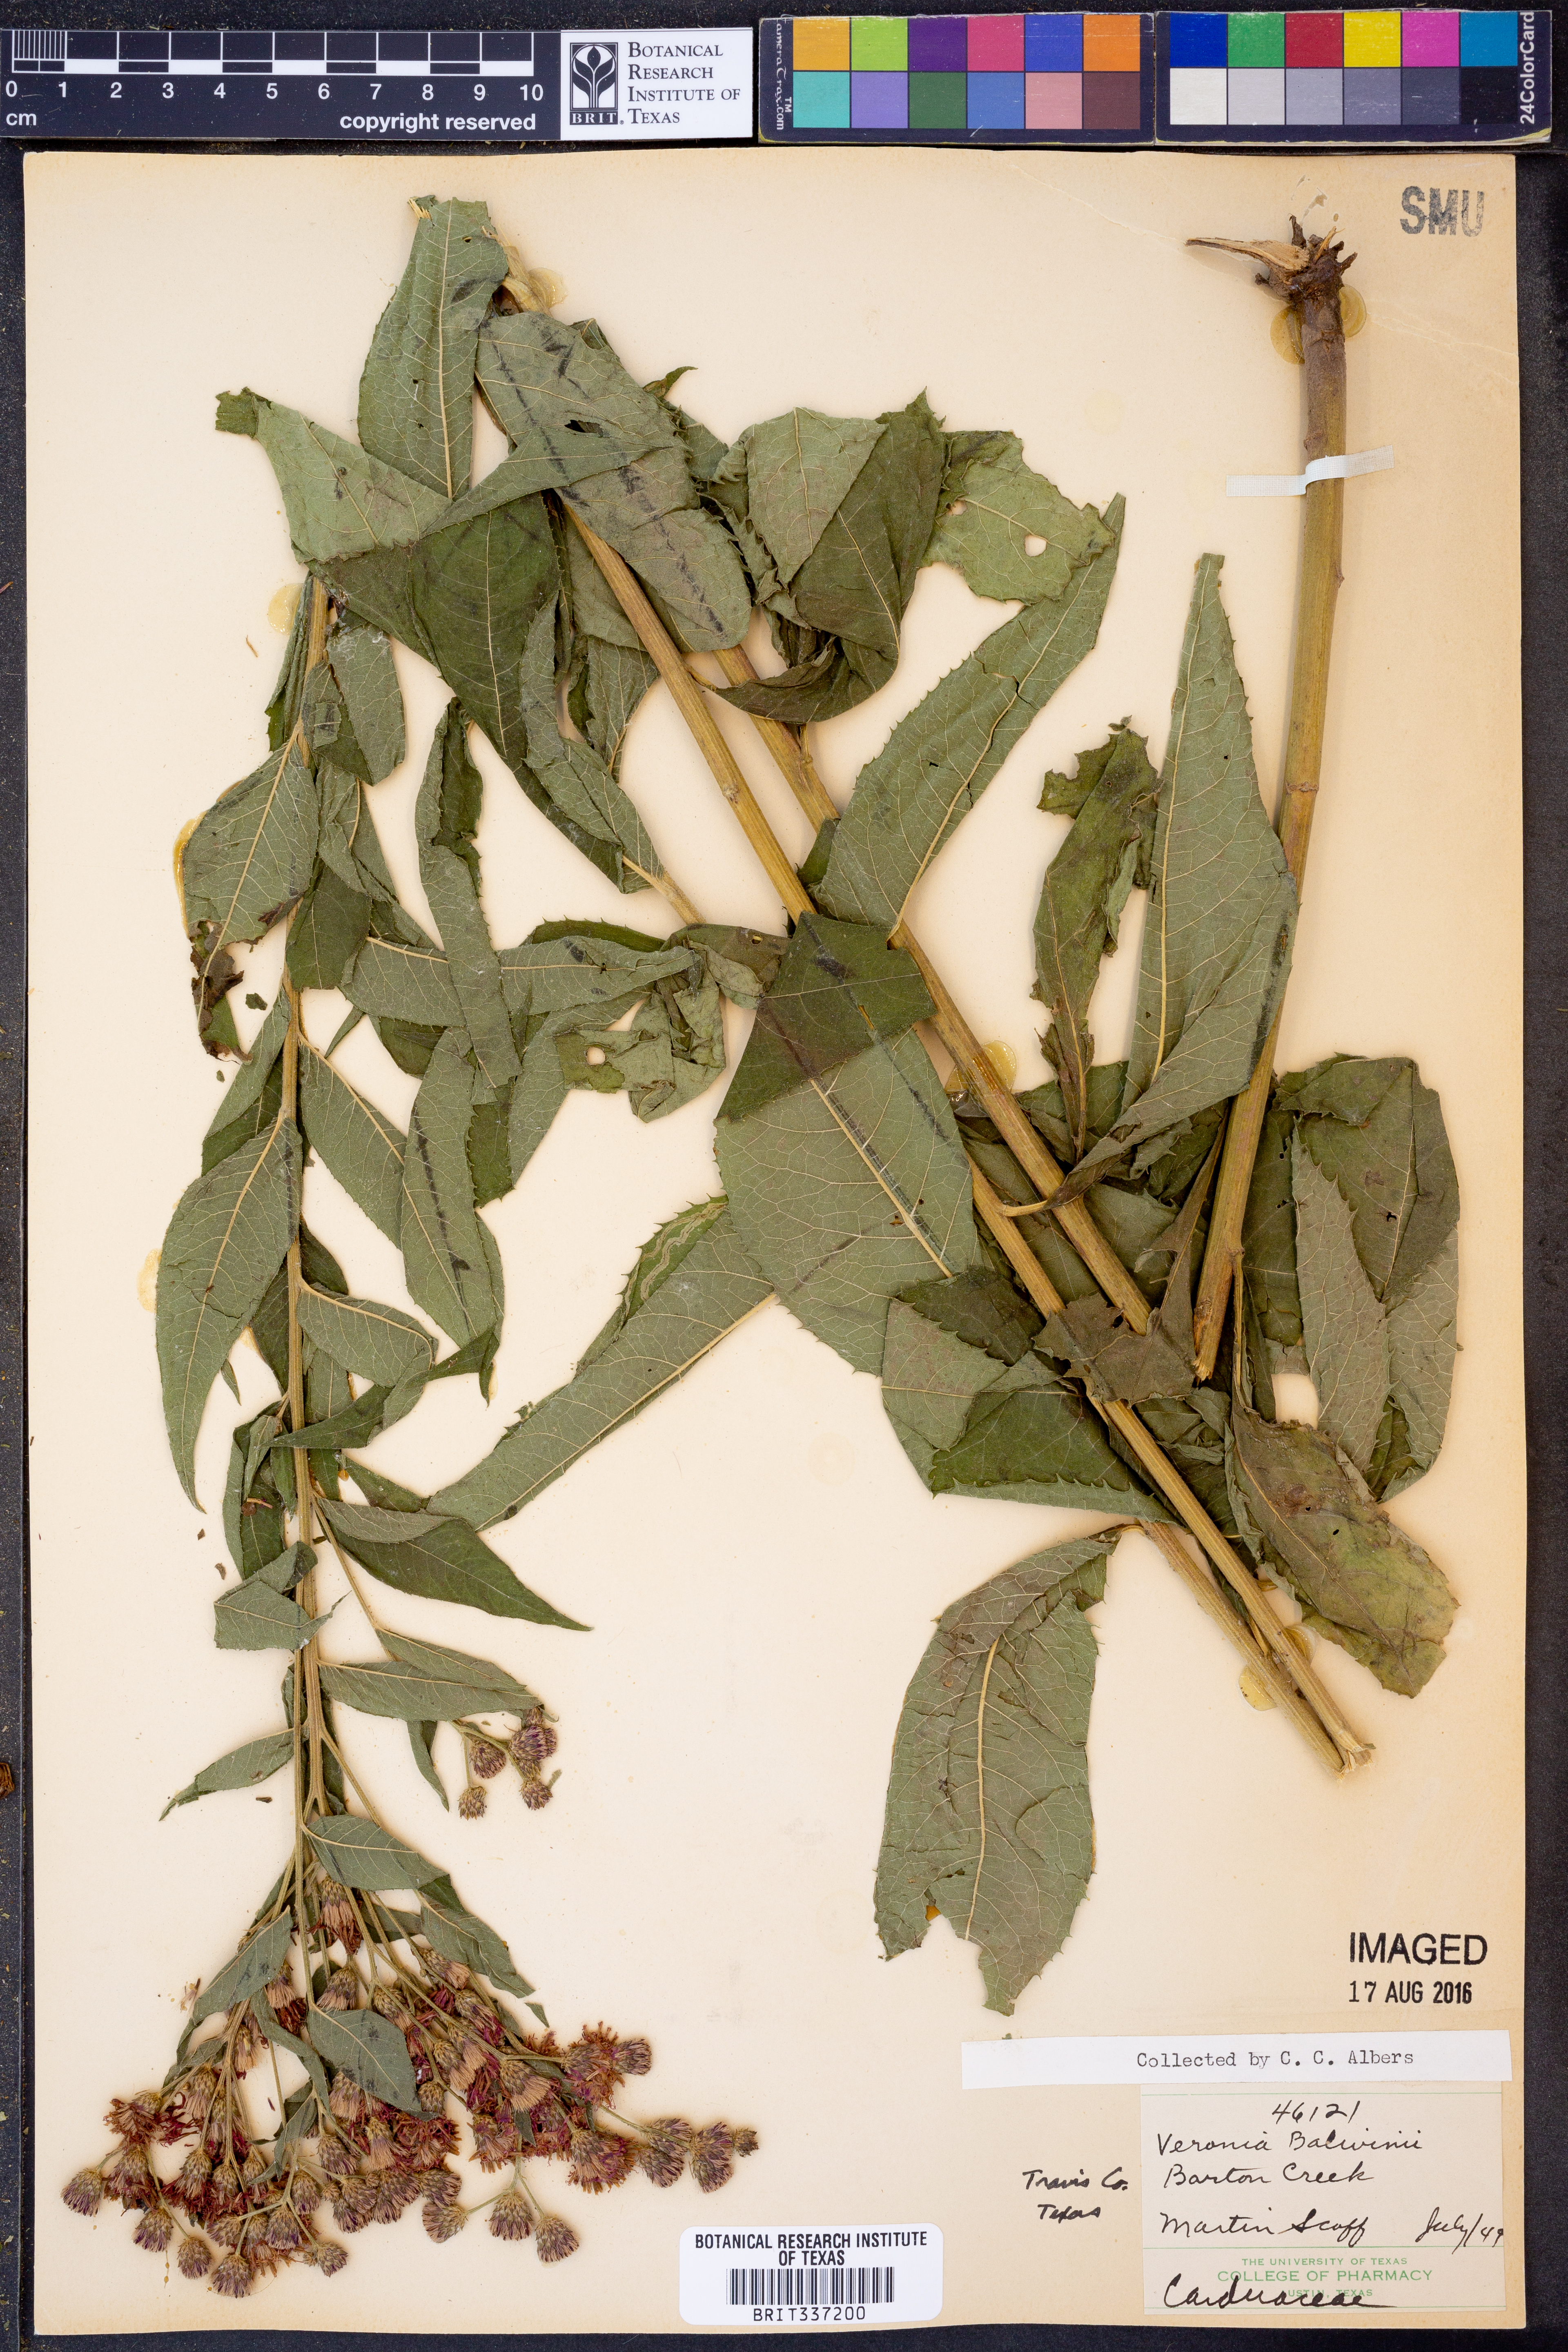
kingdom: Plantae
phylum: Tracheophyta
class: Magnoliopsida
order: Asterales
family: Asteraceae
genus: Vernonia
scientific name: Vernonia baldwinii
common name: Western ironweed
